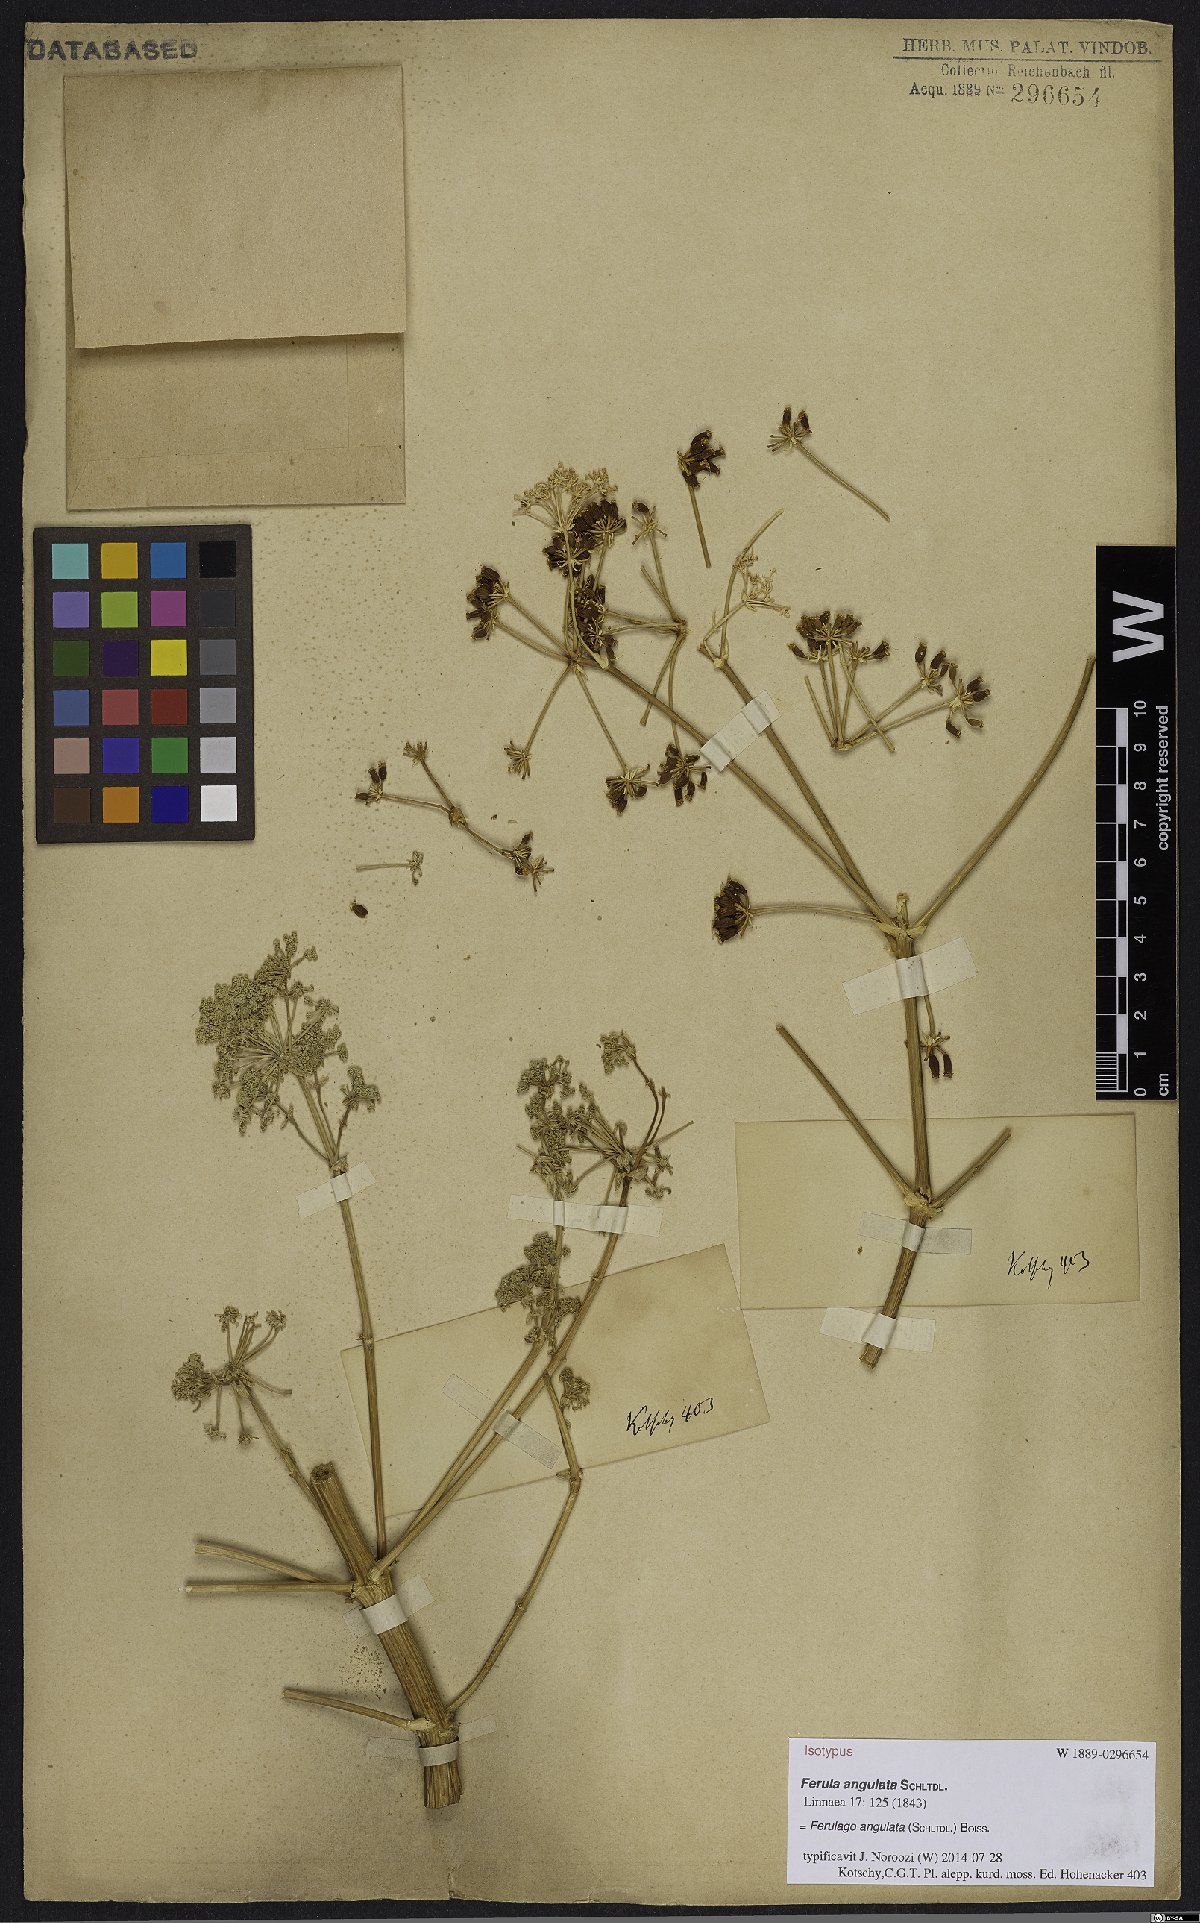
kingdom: Plantae
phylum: Tracheophyta
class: Magnoliopsida
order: Apiales
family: Apiaceae
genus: Ferulago
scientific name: Ferulago angulata
